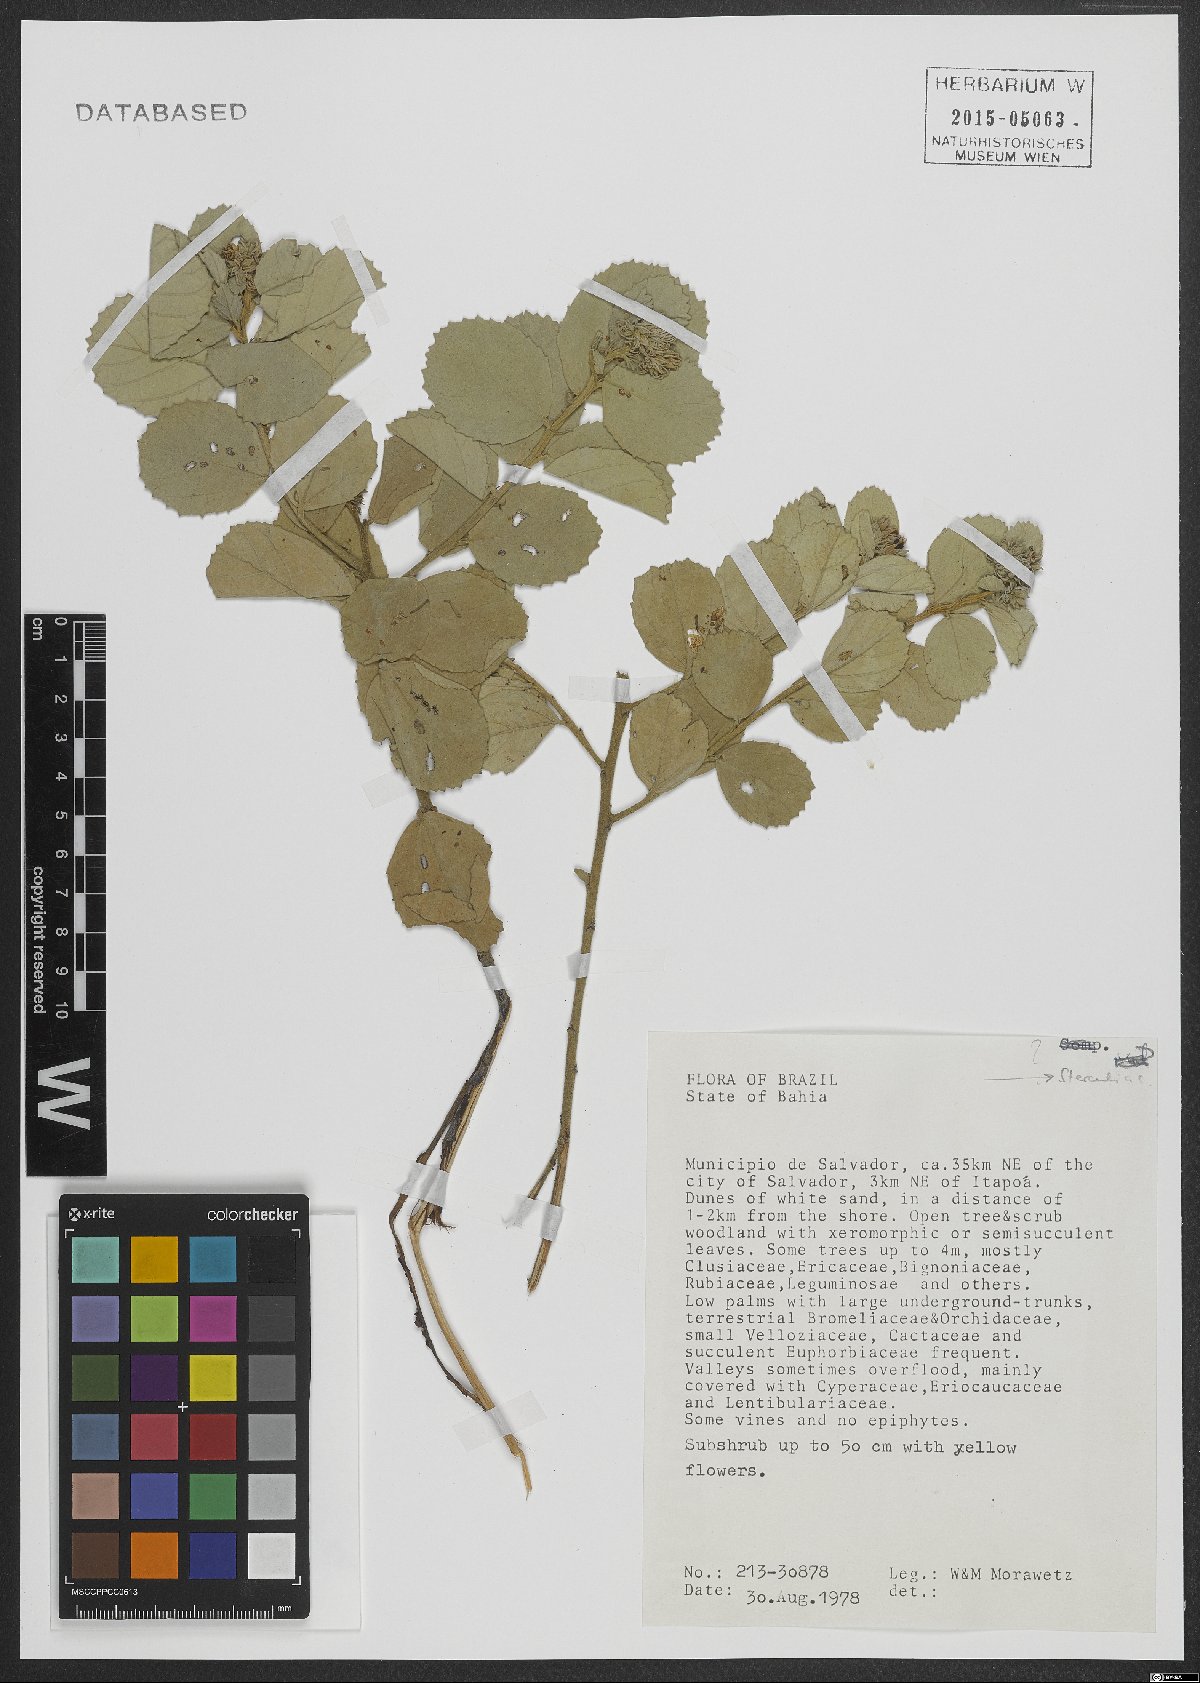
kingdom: Plantae
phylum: Tracheophyta
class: Magnoliopsida
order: Malvales
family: Sterculiaceae
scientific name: Sterculiaceae
